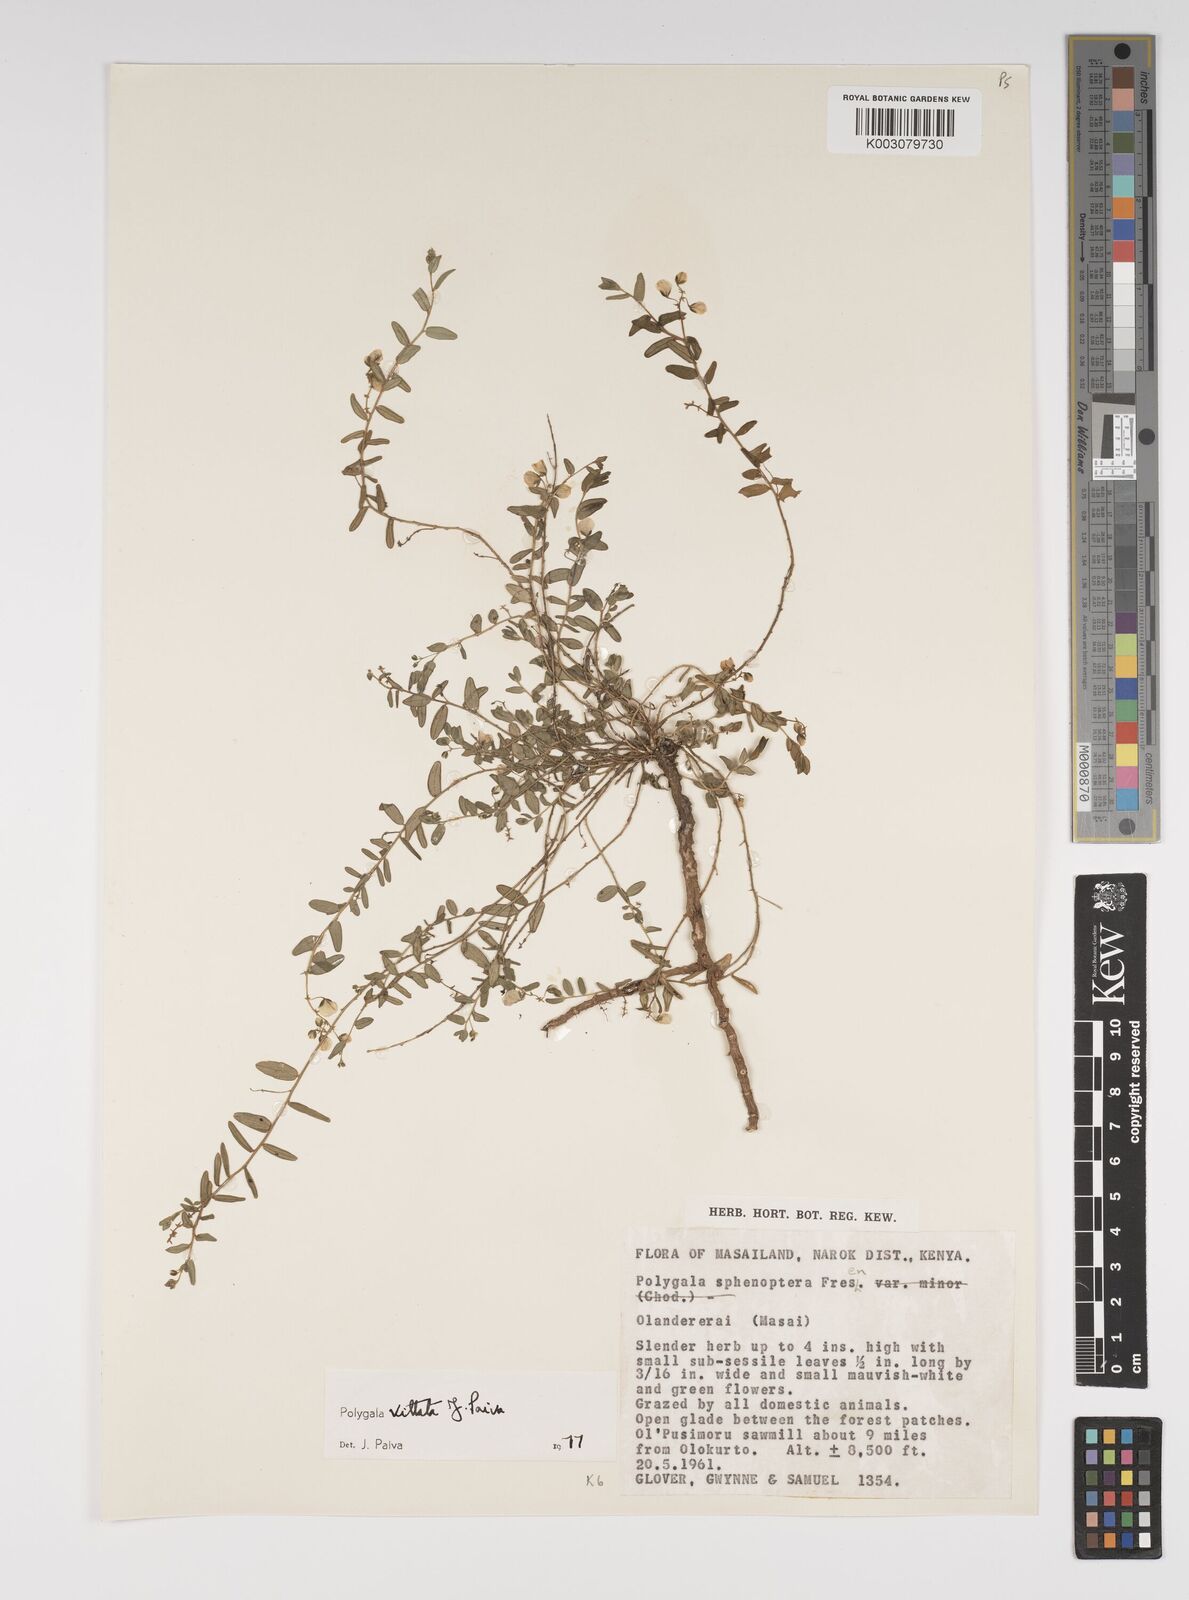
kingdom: Plantae
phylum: Tracheophyta
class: Magnoliopsida
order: Fabales
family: Polygalaceae
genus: Polygala
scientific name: Polygala vittata
